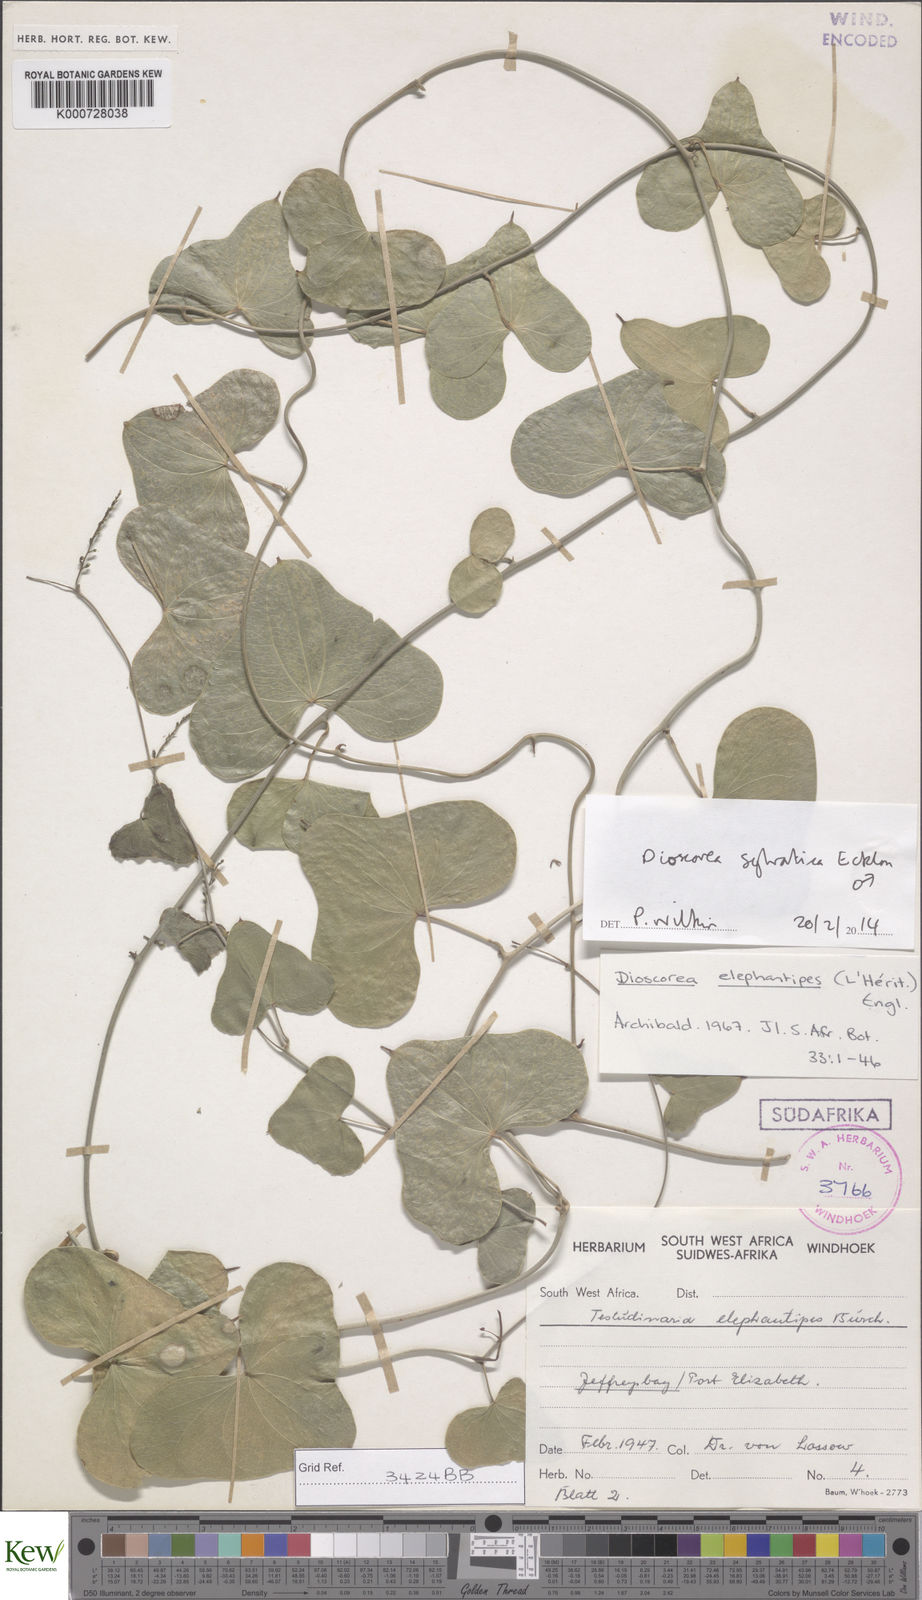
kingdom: Plantae
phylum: Tracheophyta
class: Liliopsida
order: Dioscoreales
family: Dioscoreaceae
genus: Dioscorea
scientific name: Dioscorea sylvatica
